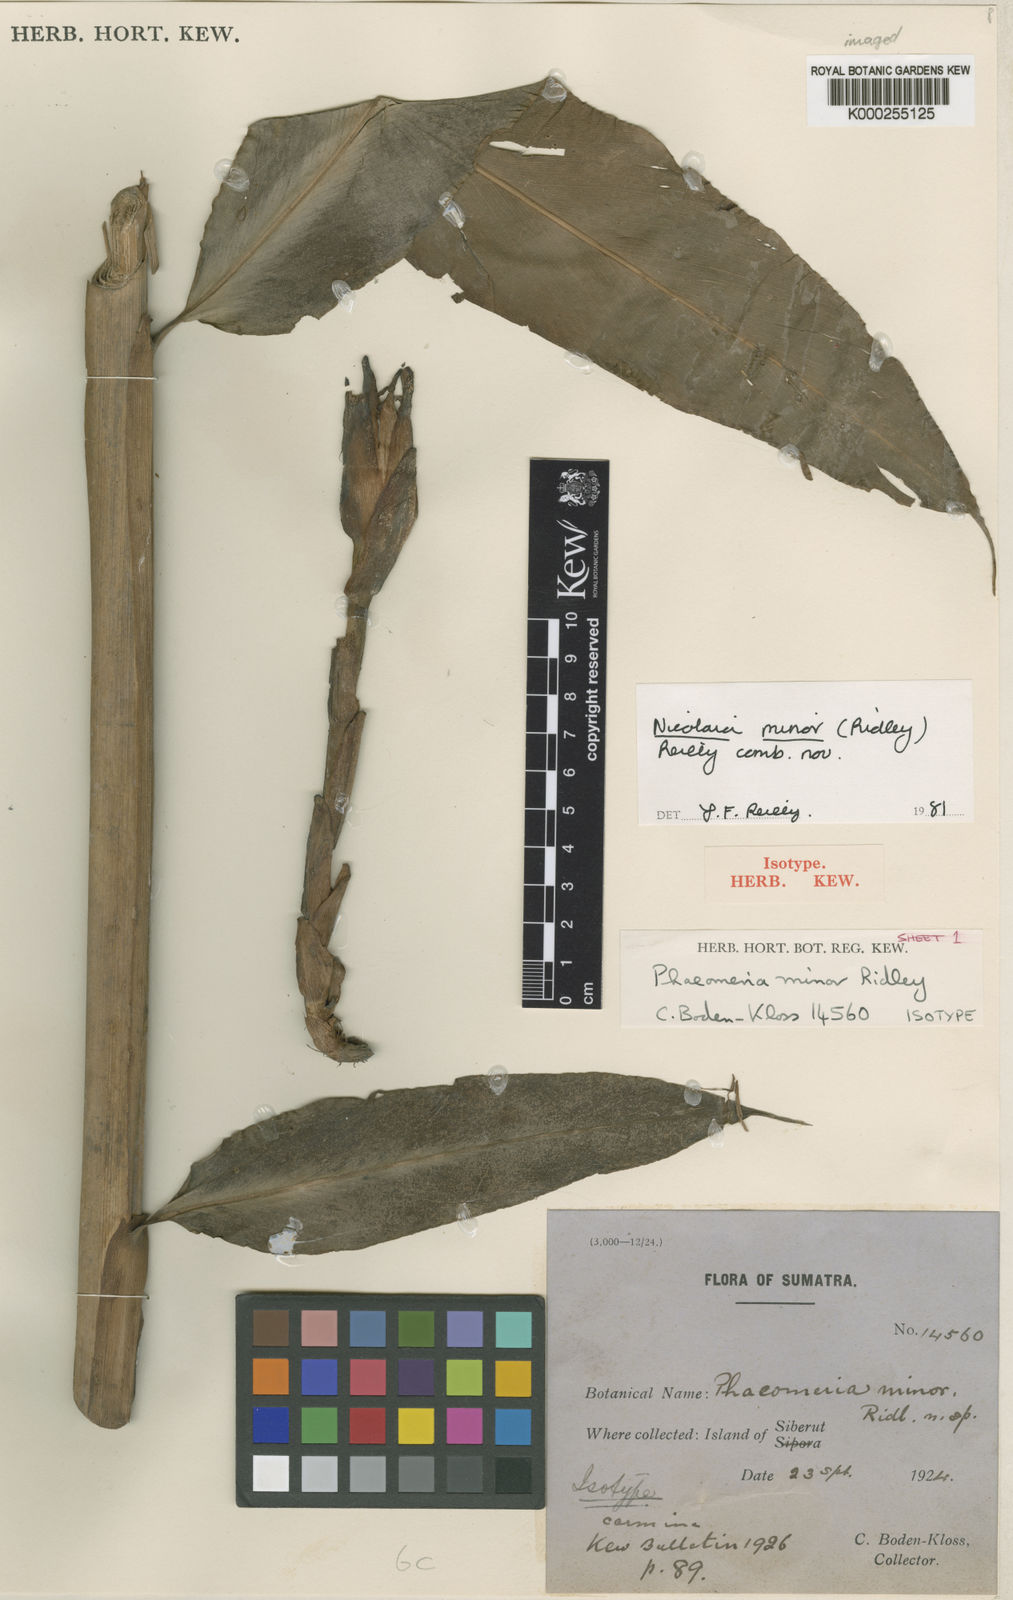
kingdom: Plantae
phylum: Tracheophyta
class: Liliopsida
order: Zingiberales
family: Zingiberaceae
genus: Etlingera
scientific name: Etlingera minor
